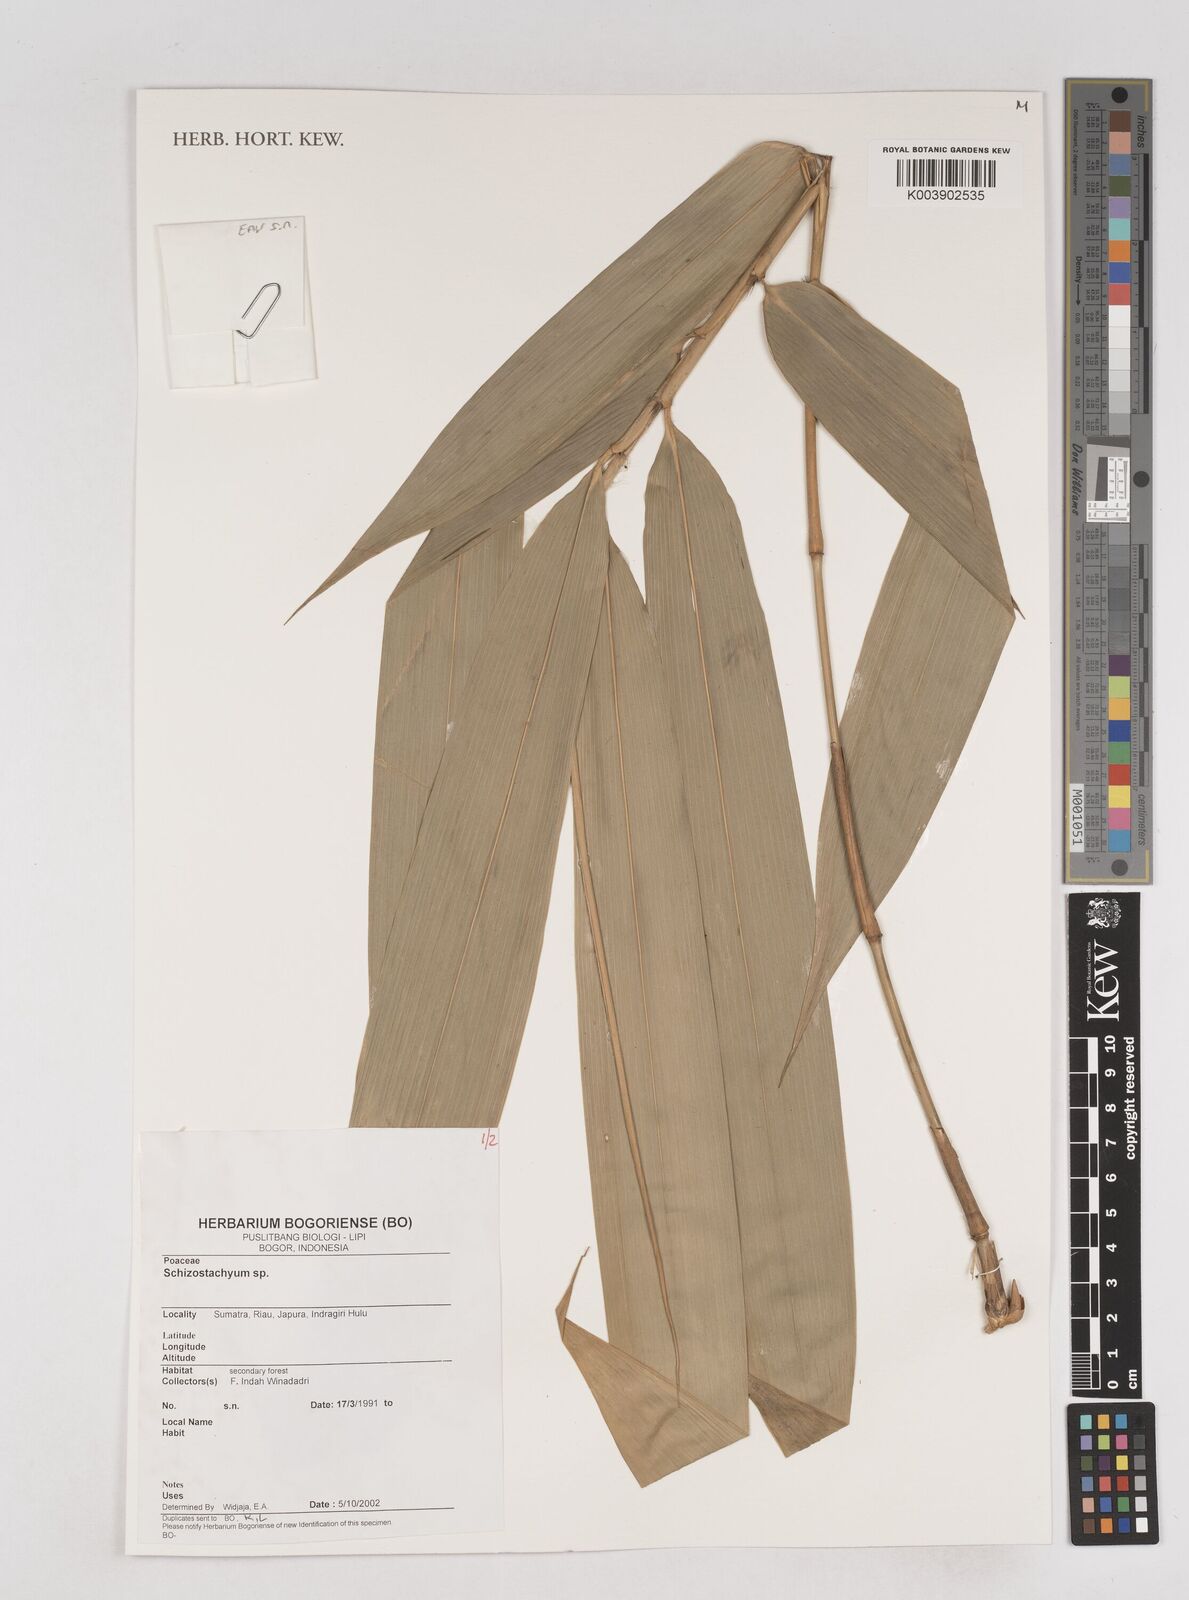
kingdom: Plantae
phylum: Tracheophyta
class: Liliopsida
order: Poales
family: Poaceae
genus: Schizostachyum
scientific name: Schizostachyum
